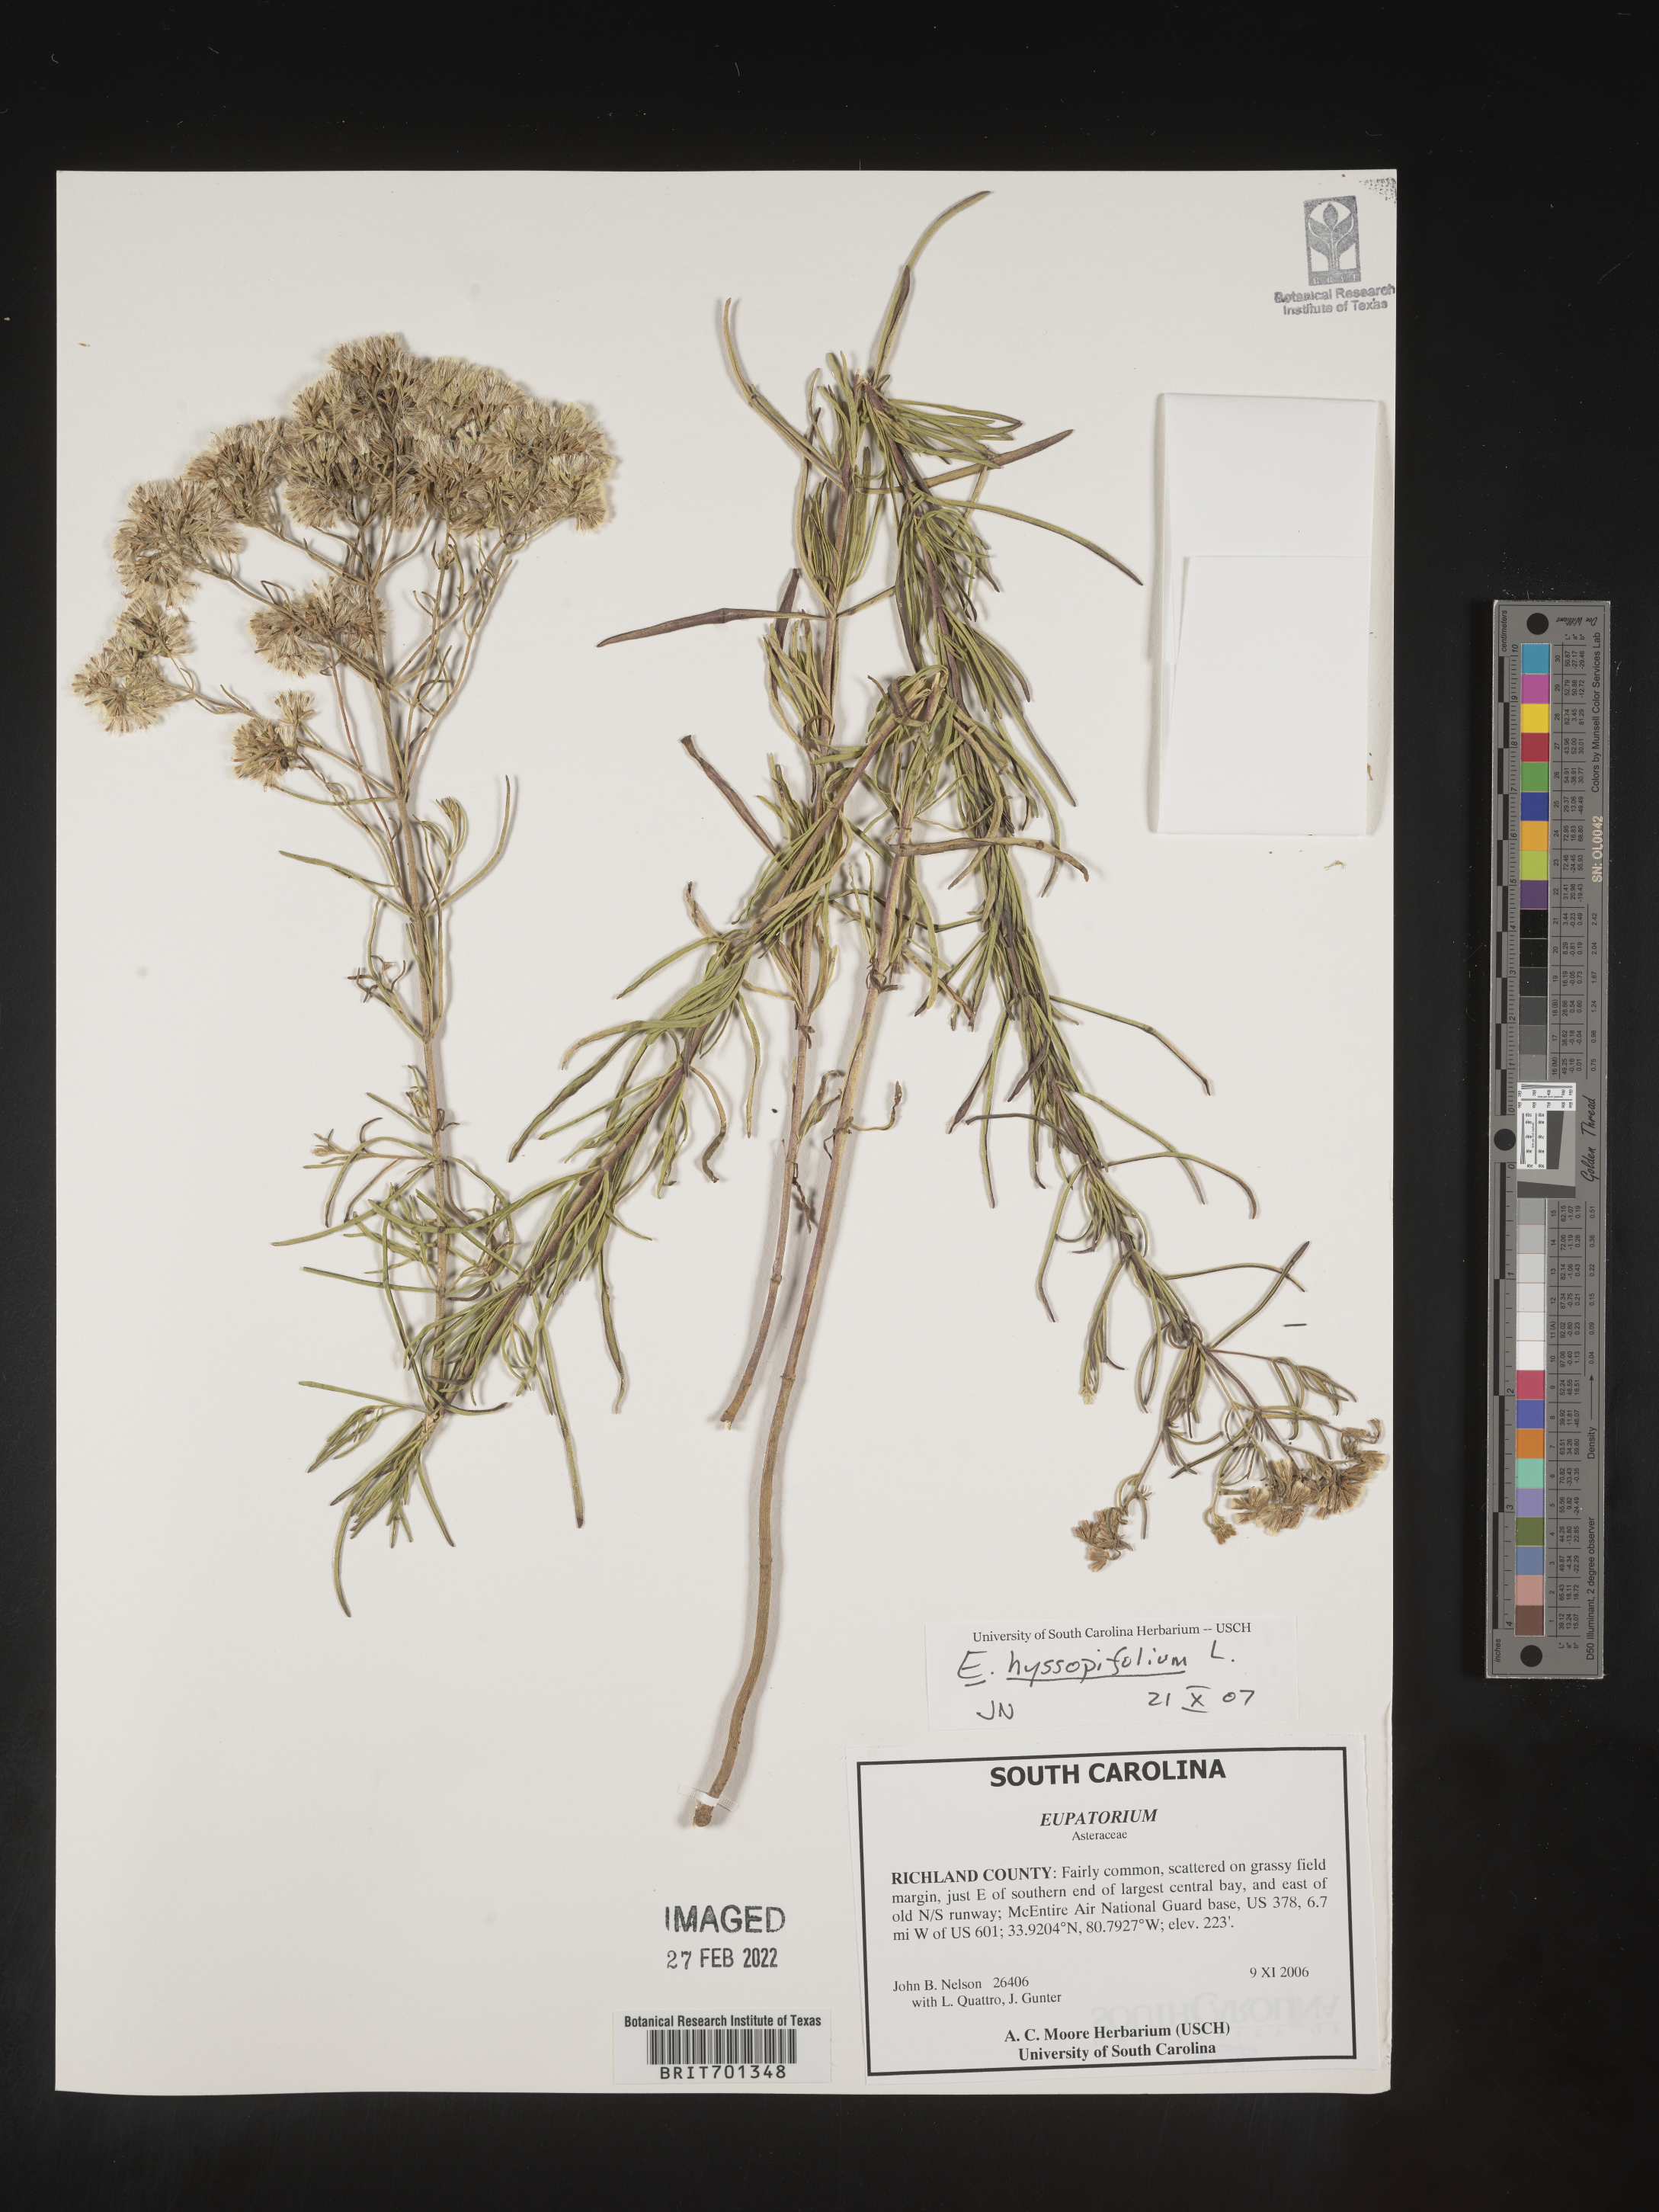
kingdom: Plantae
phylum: Tracheophyta
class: Magnoliopsida
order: Asterales
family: Asteraceae
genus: Eupatorium
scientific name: Eupatorium hyssopifolium
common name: Hyssop-leaf thoroughwort
